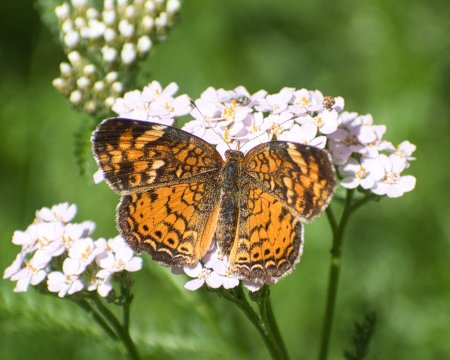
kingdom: Animalia
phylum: Arthropoda
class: Insecta
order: Lepidoptera
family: Nymphalidae
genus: Phyciodes
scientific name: Phyciodes tharos
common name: Northern Crescent
